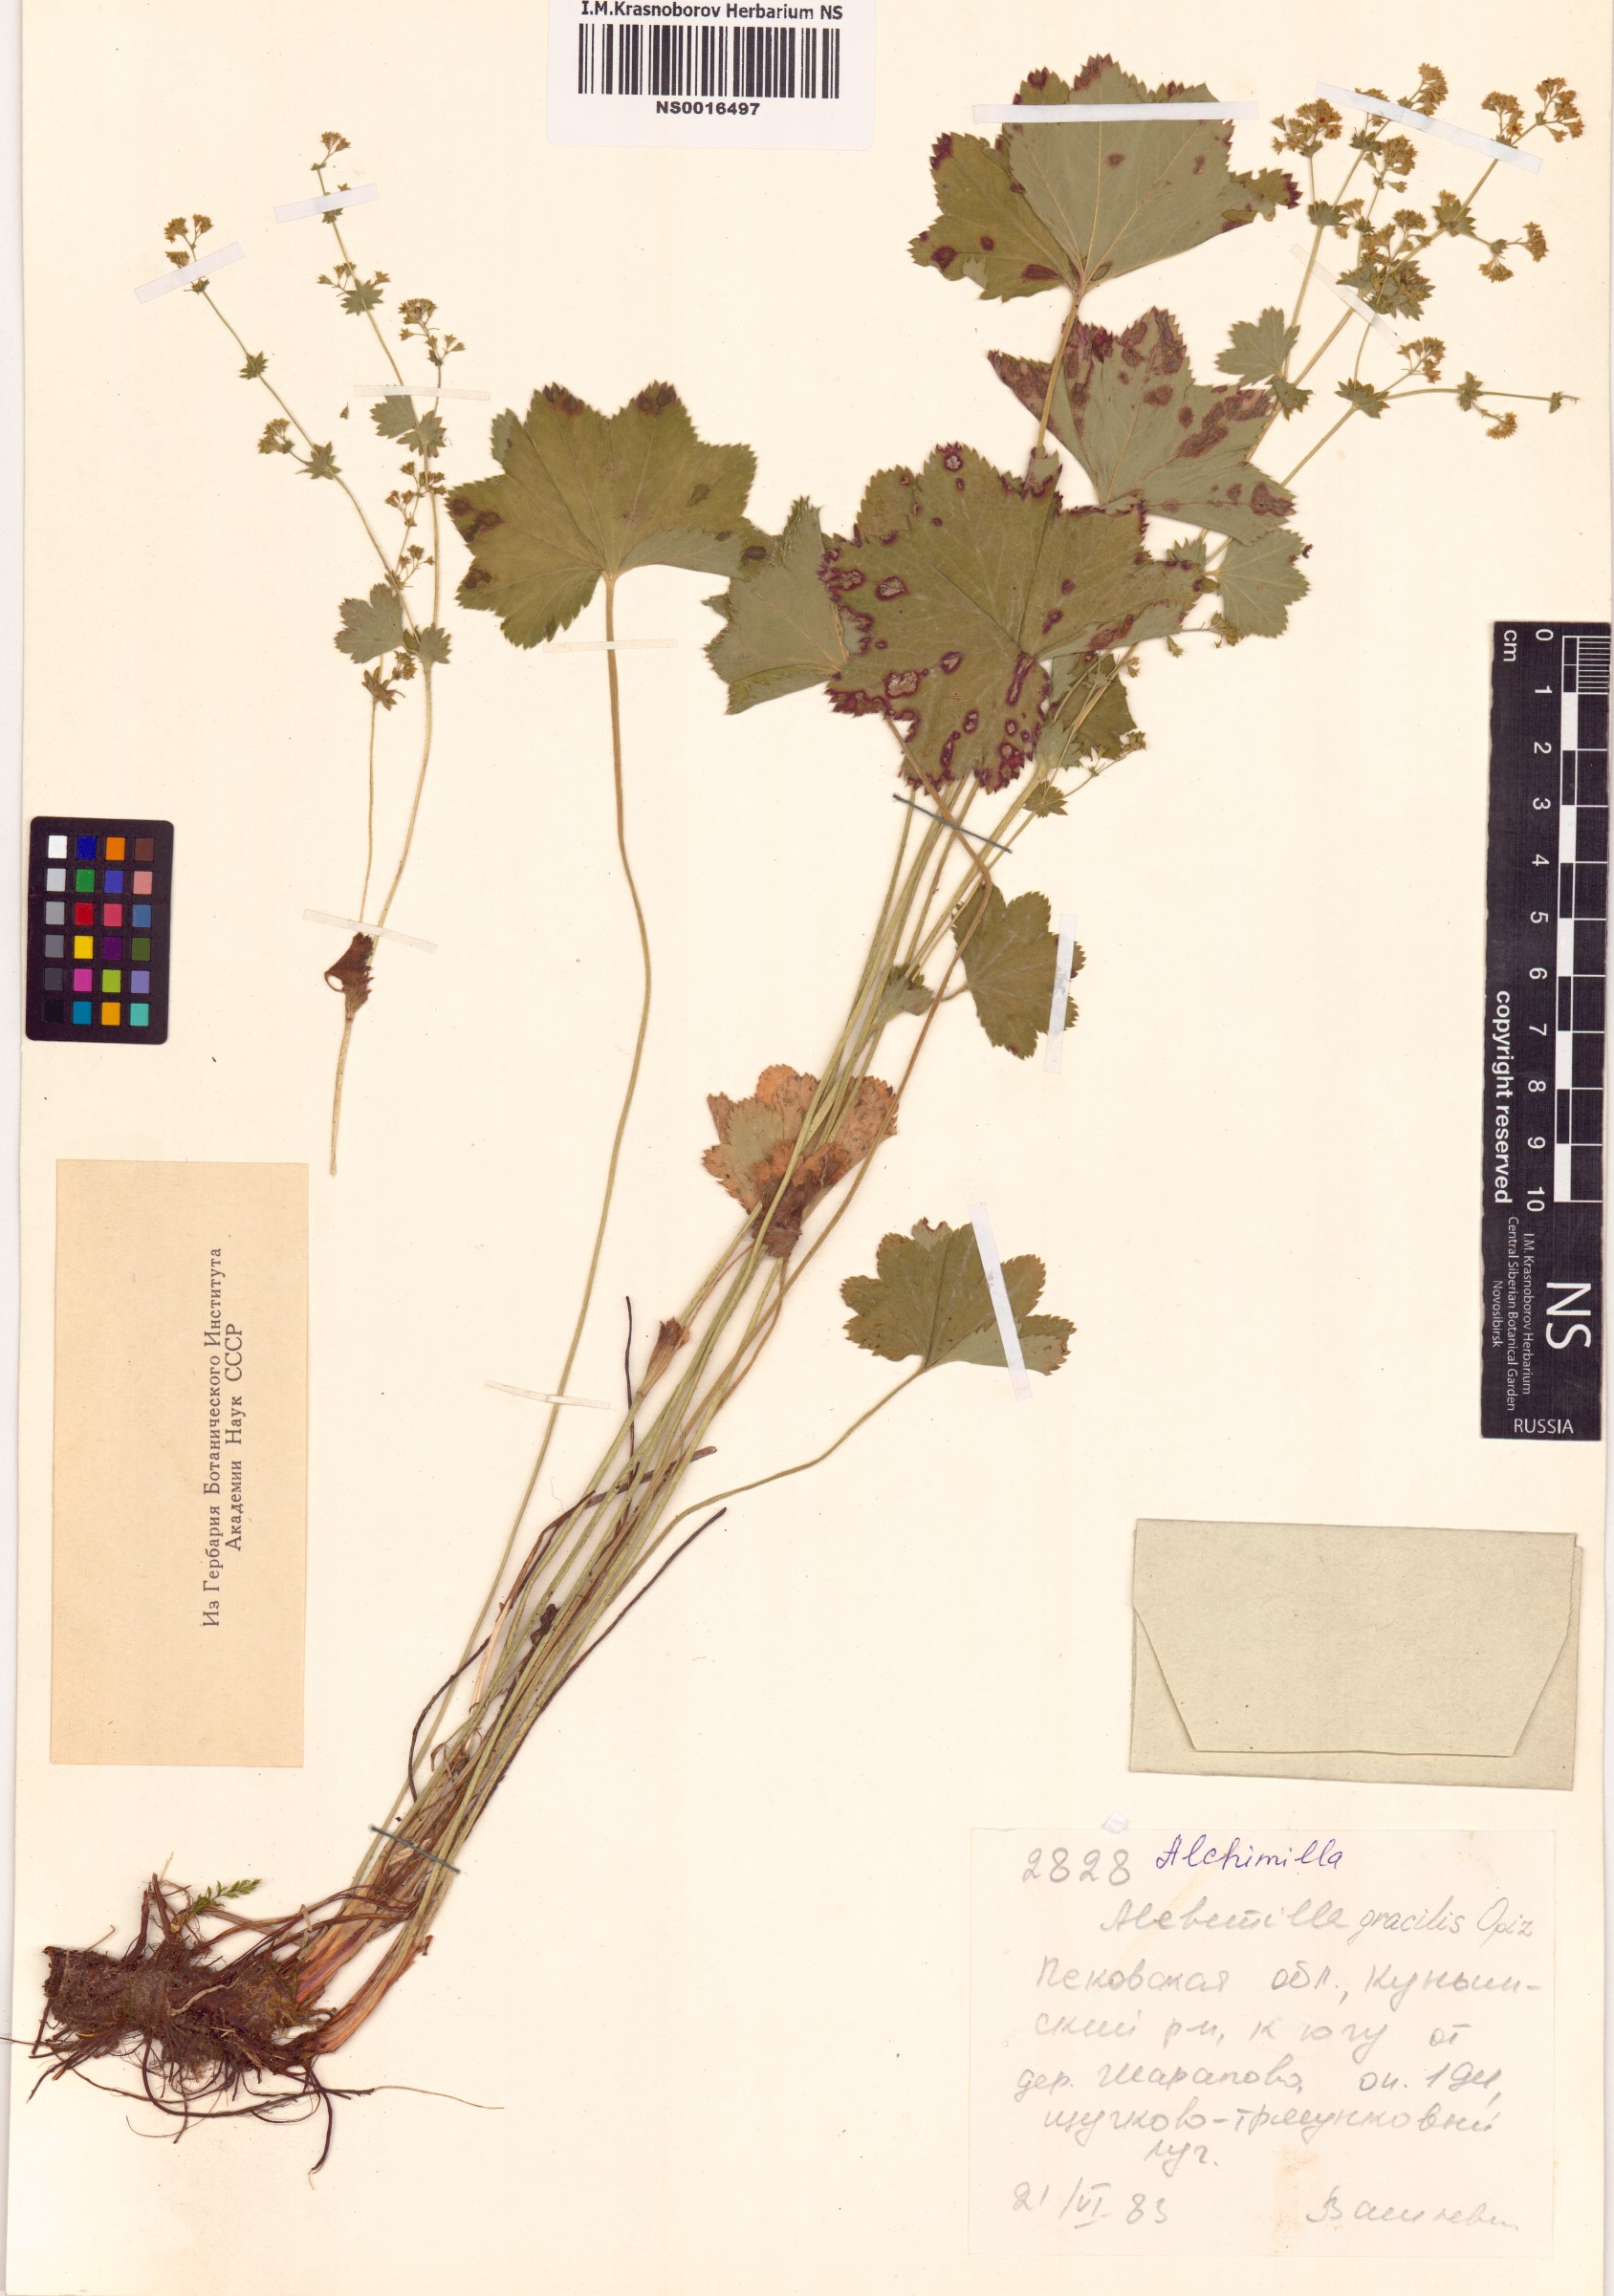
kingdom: Plantae
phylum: Tracheophyta
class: Magnoliopsida
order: Rosales
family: Rosaceae
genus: Alchemilla
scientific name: Alchemilla monticola
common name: Hairy lady's mantle
